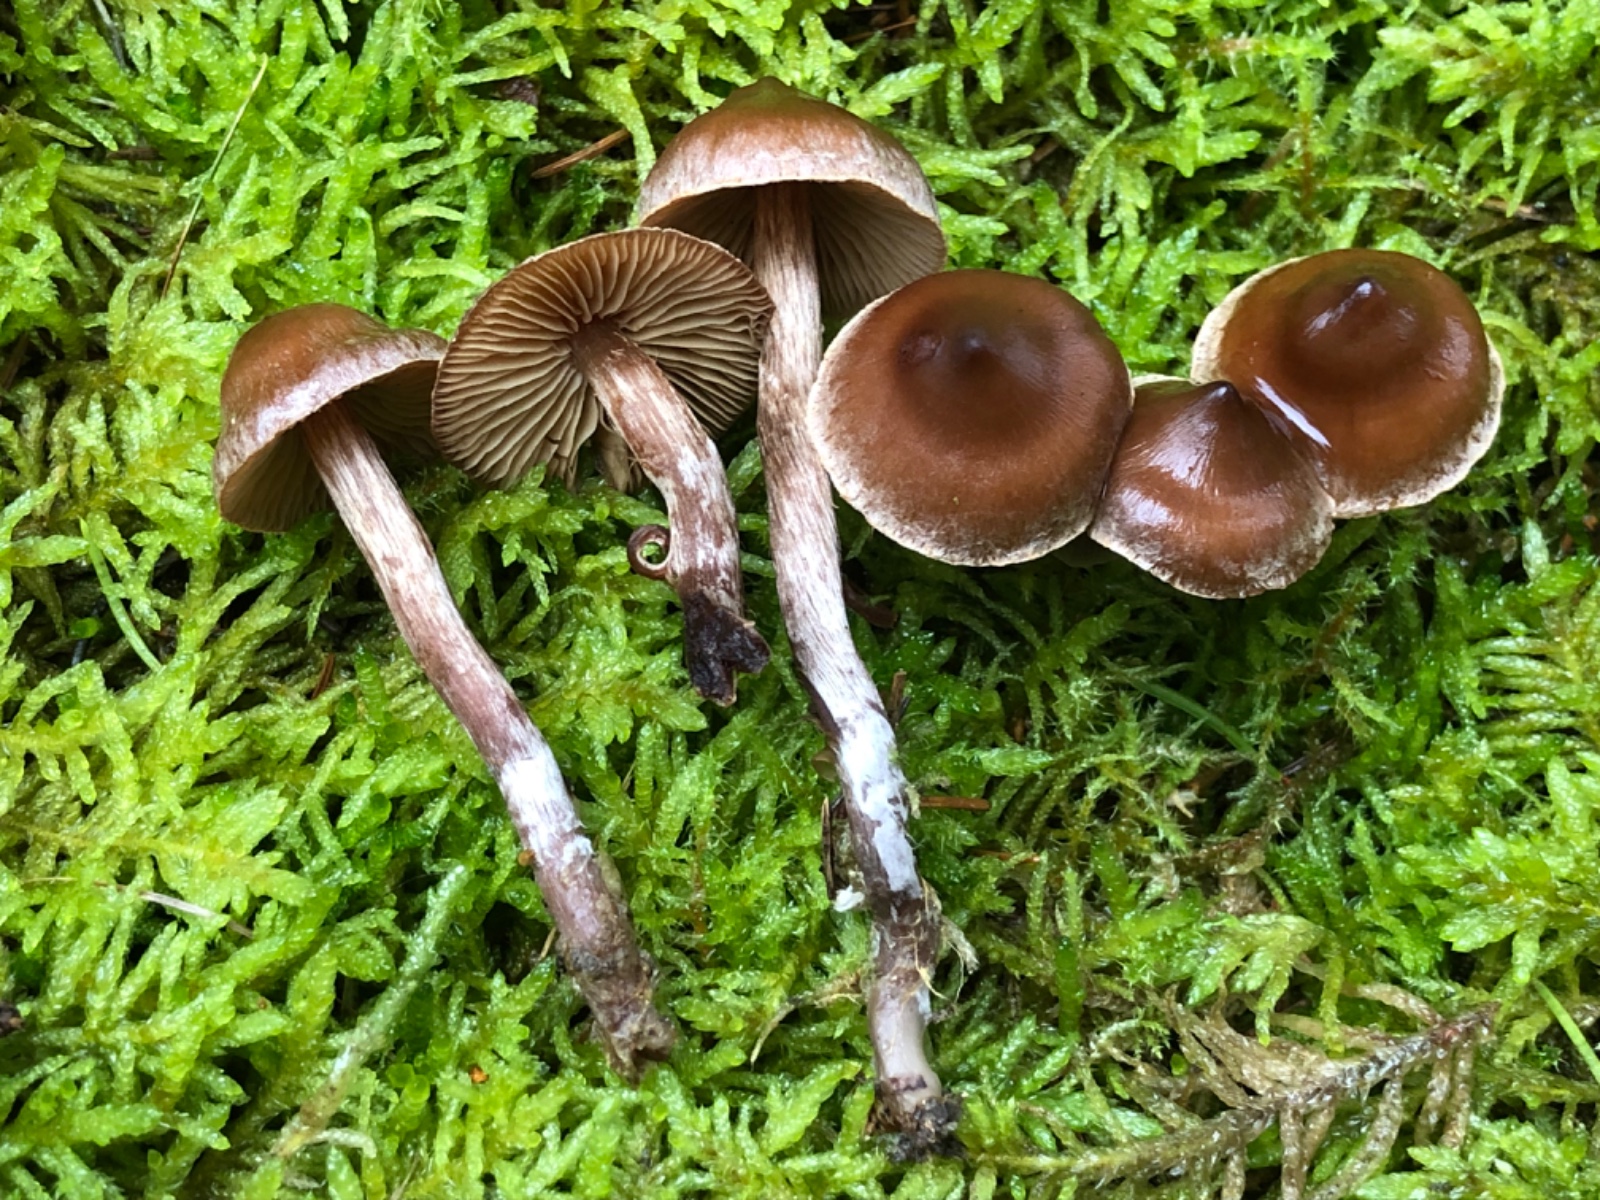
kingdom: Fungi
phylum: Basidiomycota
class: Agaricomycetes
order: Agaricales
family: Cortinariaceae
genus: Cortinarius
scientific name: Cortinarius famatus
